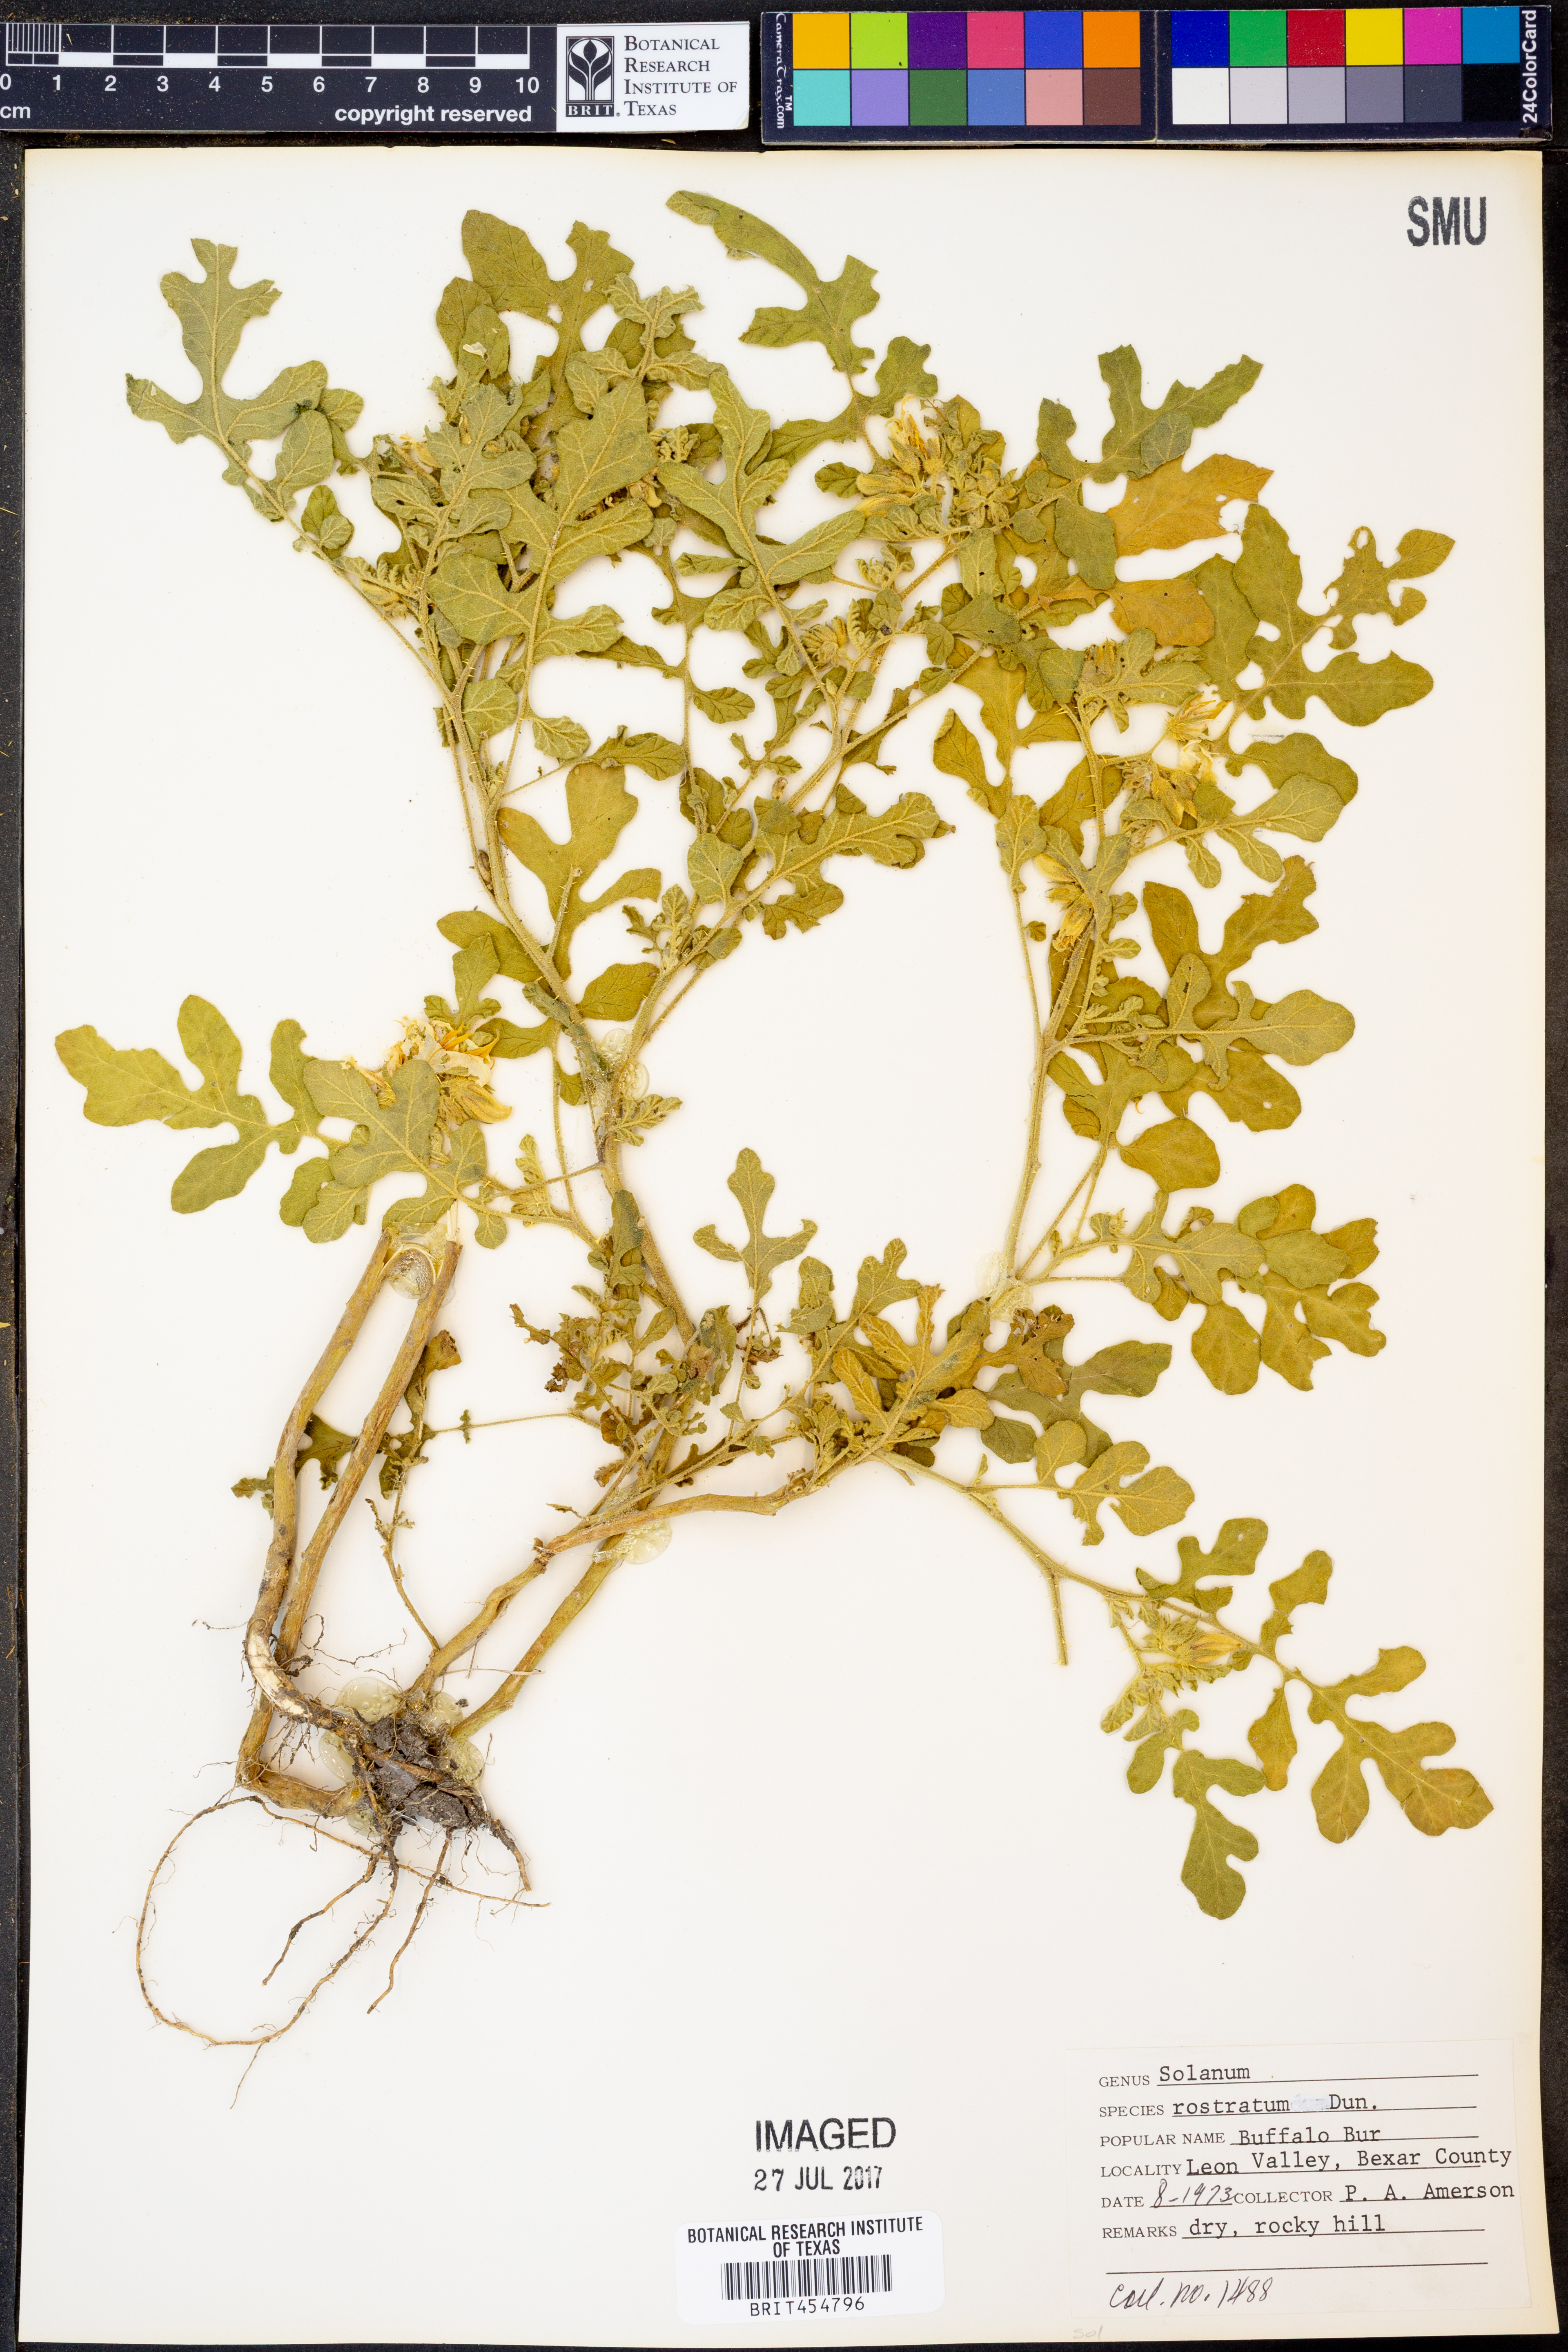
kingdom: Plantae
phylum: Tracheophyta
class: Magnoliopsida
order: Solanales
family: Solanaceae
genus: Solanum
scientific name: Solanum angustifolium
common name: Buffalobur nightshade
